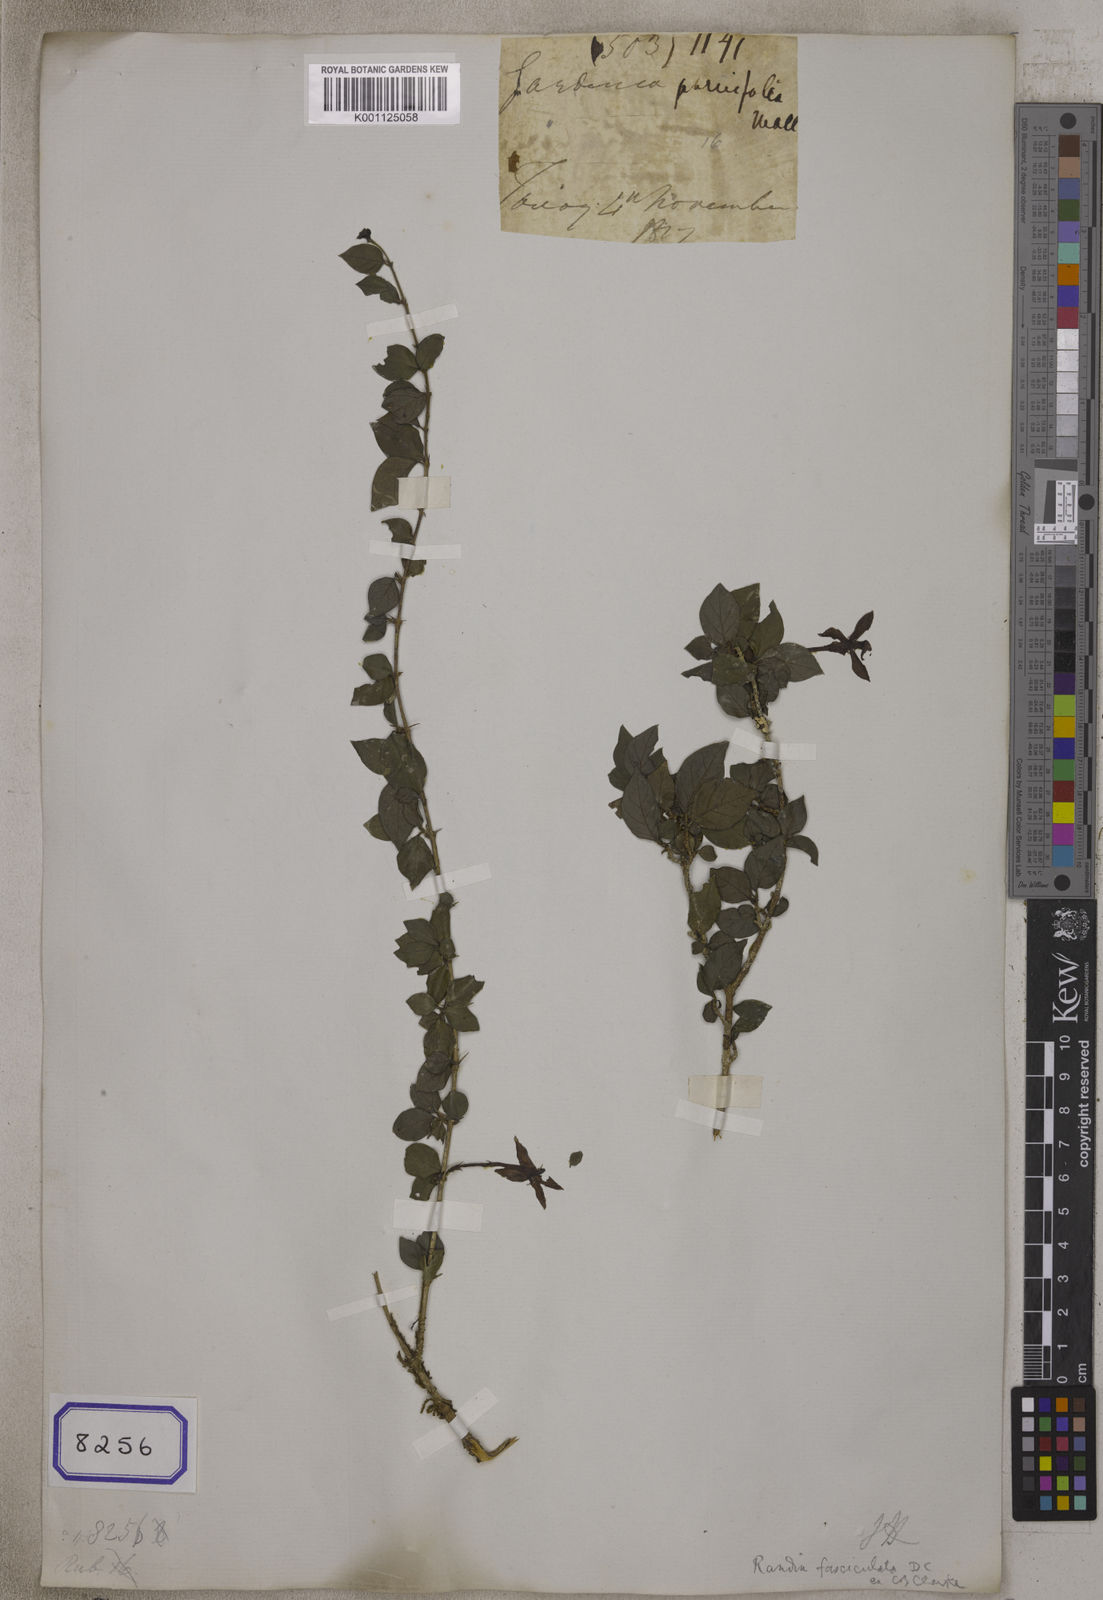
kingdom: Plantae
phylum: Tracheophyta
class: Magnoliopsida
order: Gentianales
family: Rubiaceae
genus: Gardenia
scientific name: Gardenia
